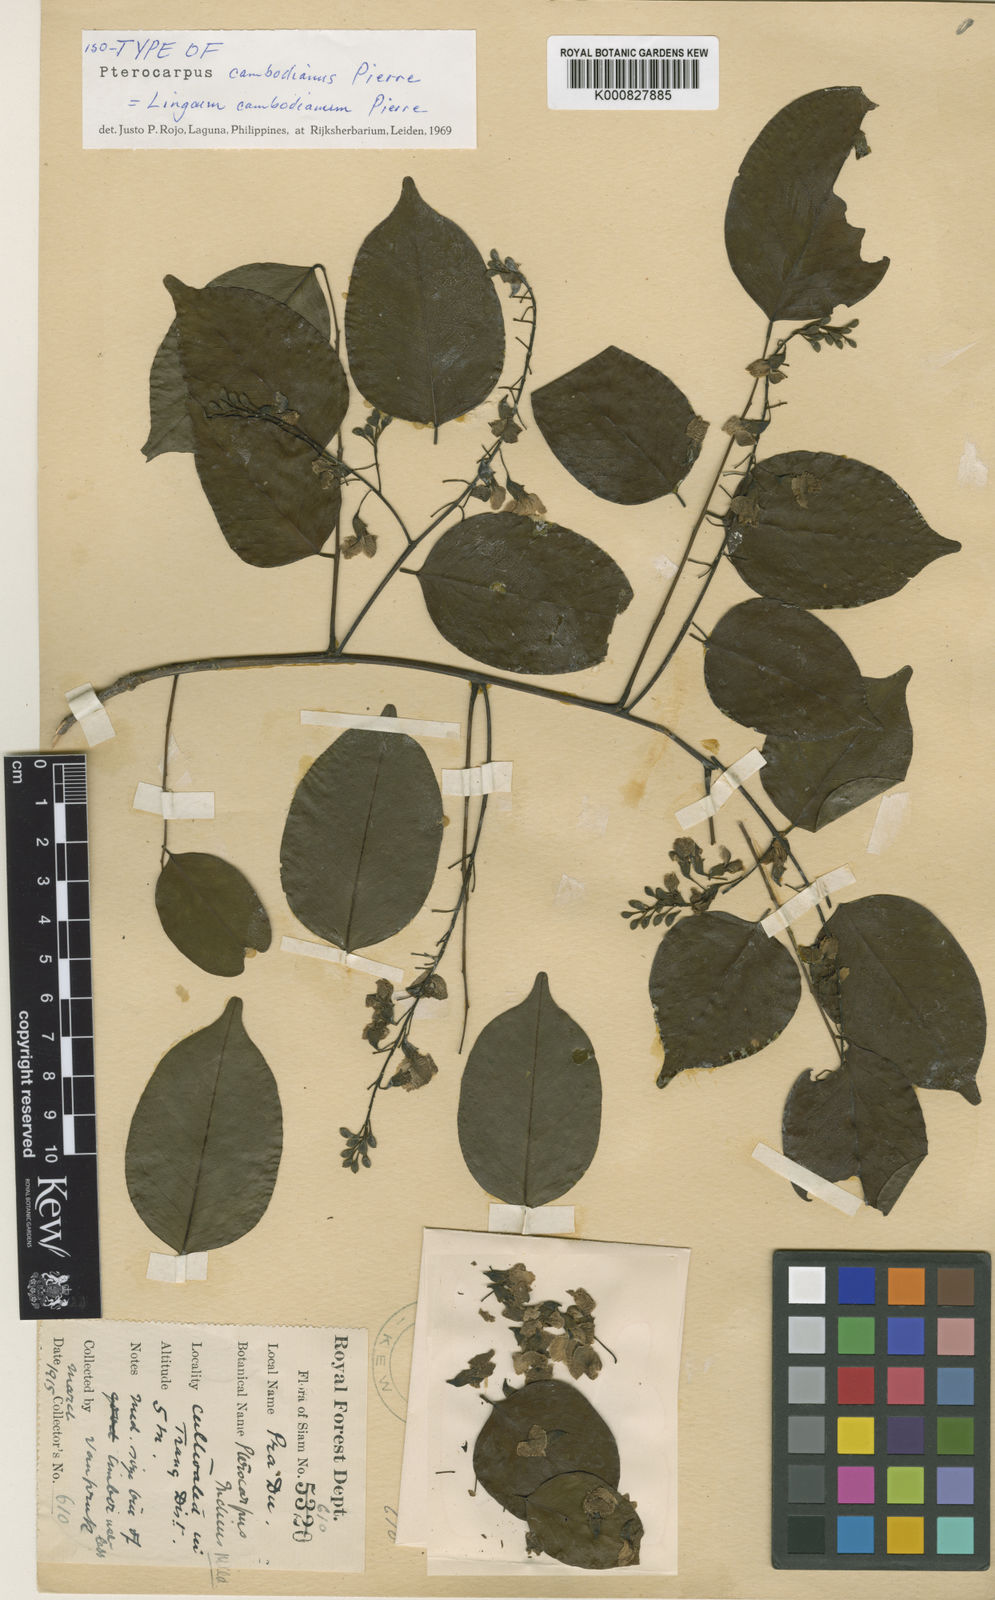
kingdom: Plantae
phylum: Tracheophyta
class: Magnoliopsida
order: Fabales
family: Fabaceae
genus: Pterocarpus
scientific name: Pterocarpus macrocarpus
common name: Burma padauk
